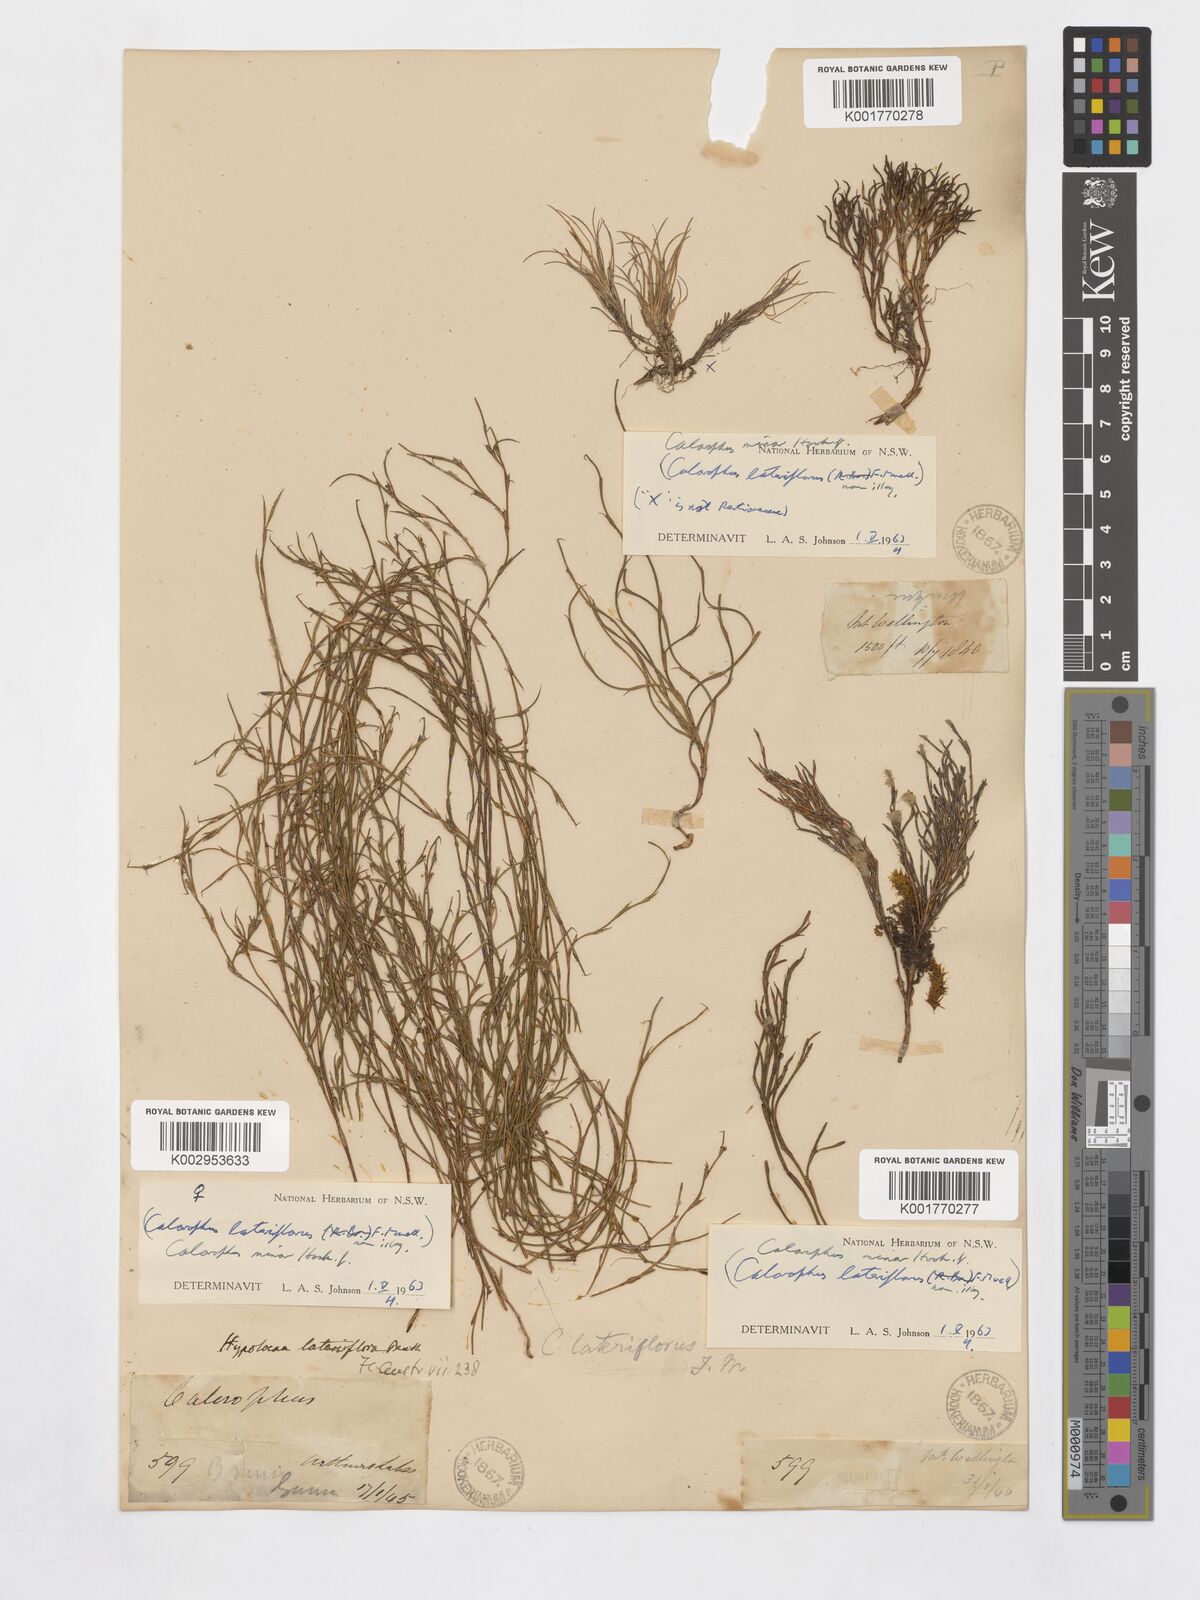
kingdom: Plantae
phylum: Tracheophyta
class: Liliopsida
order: Poales
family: Restionaceae
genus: Empodisma
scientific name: Empodisma minus
